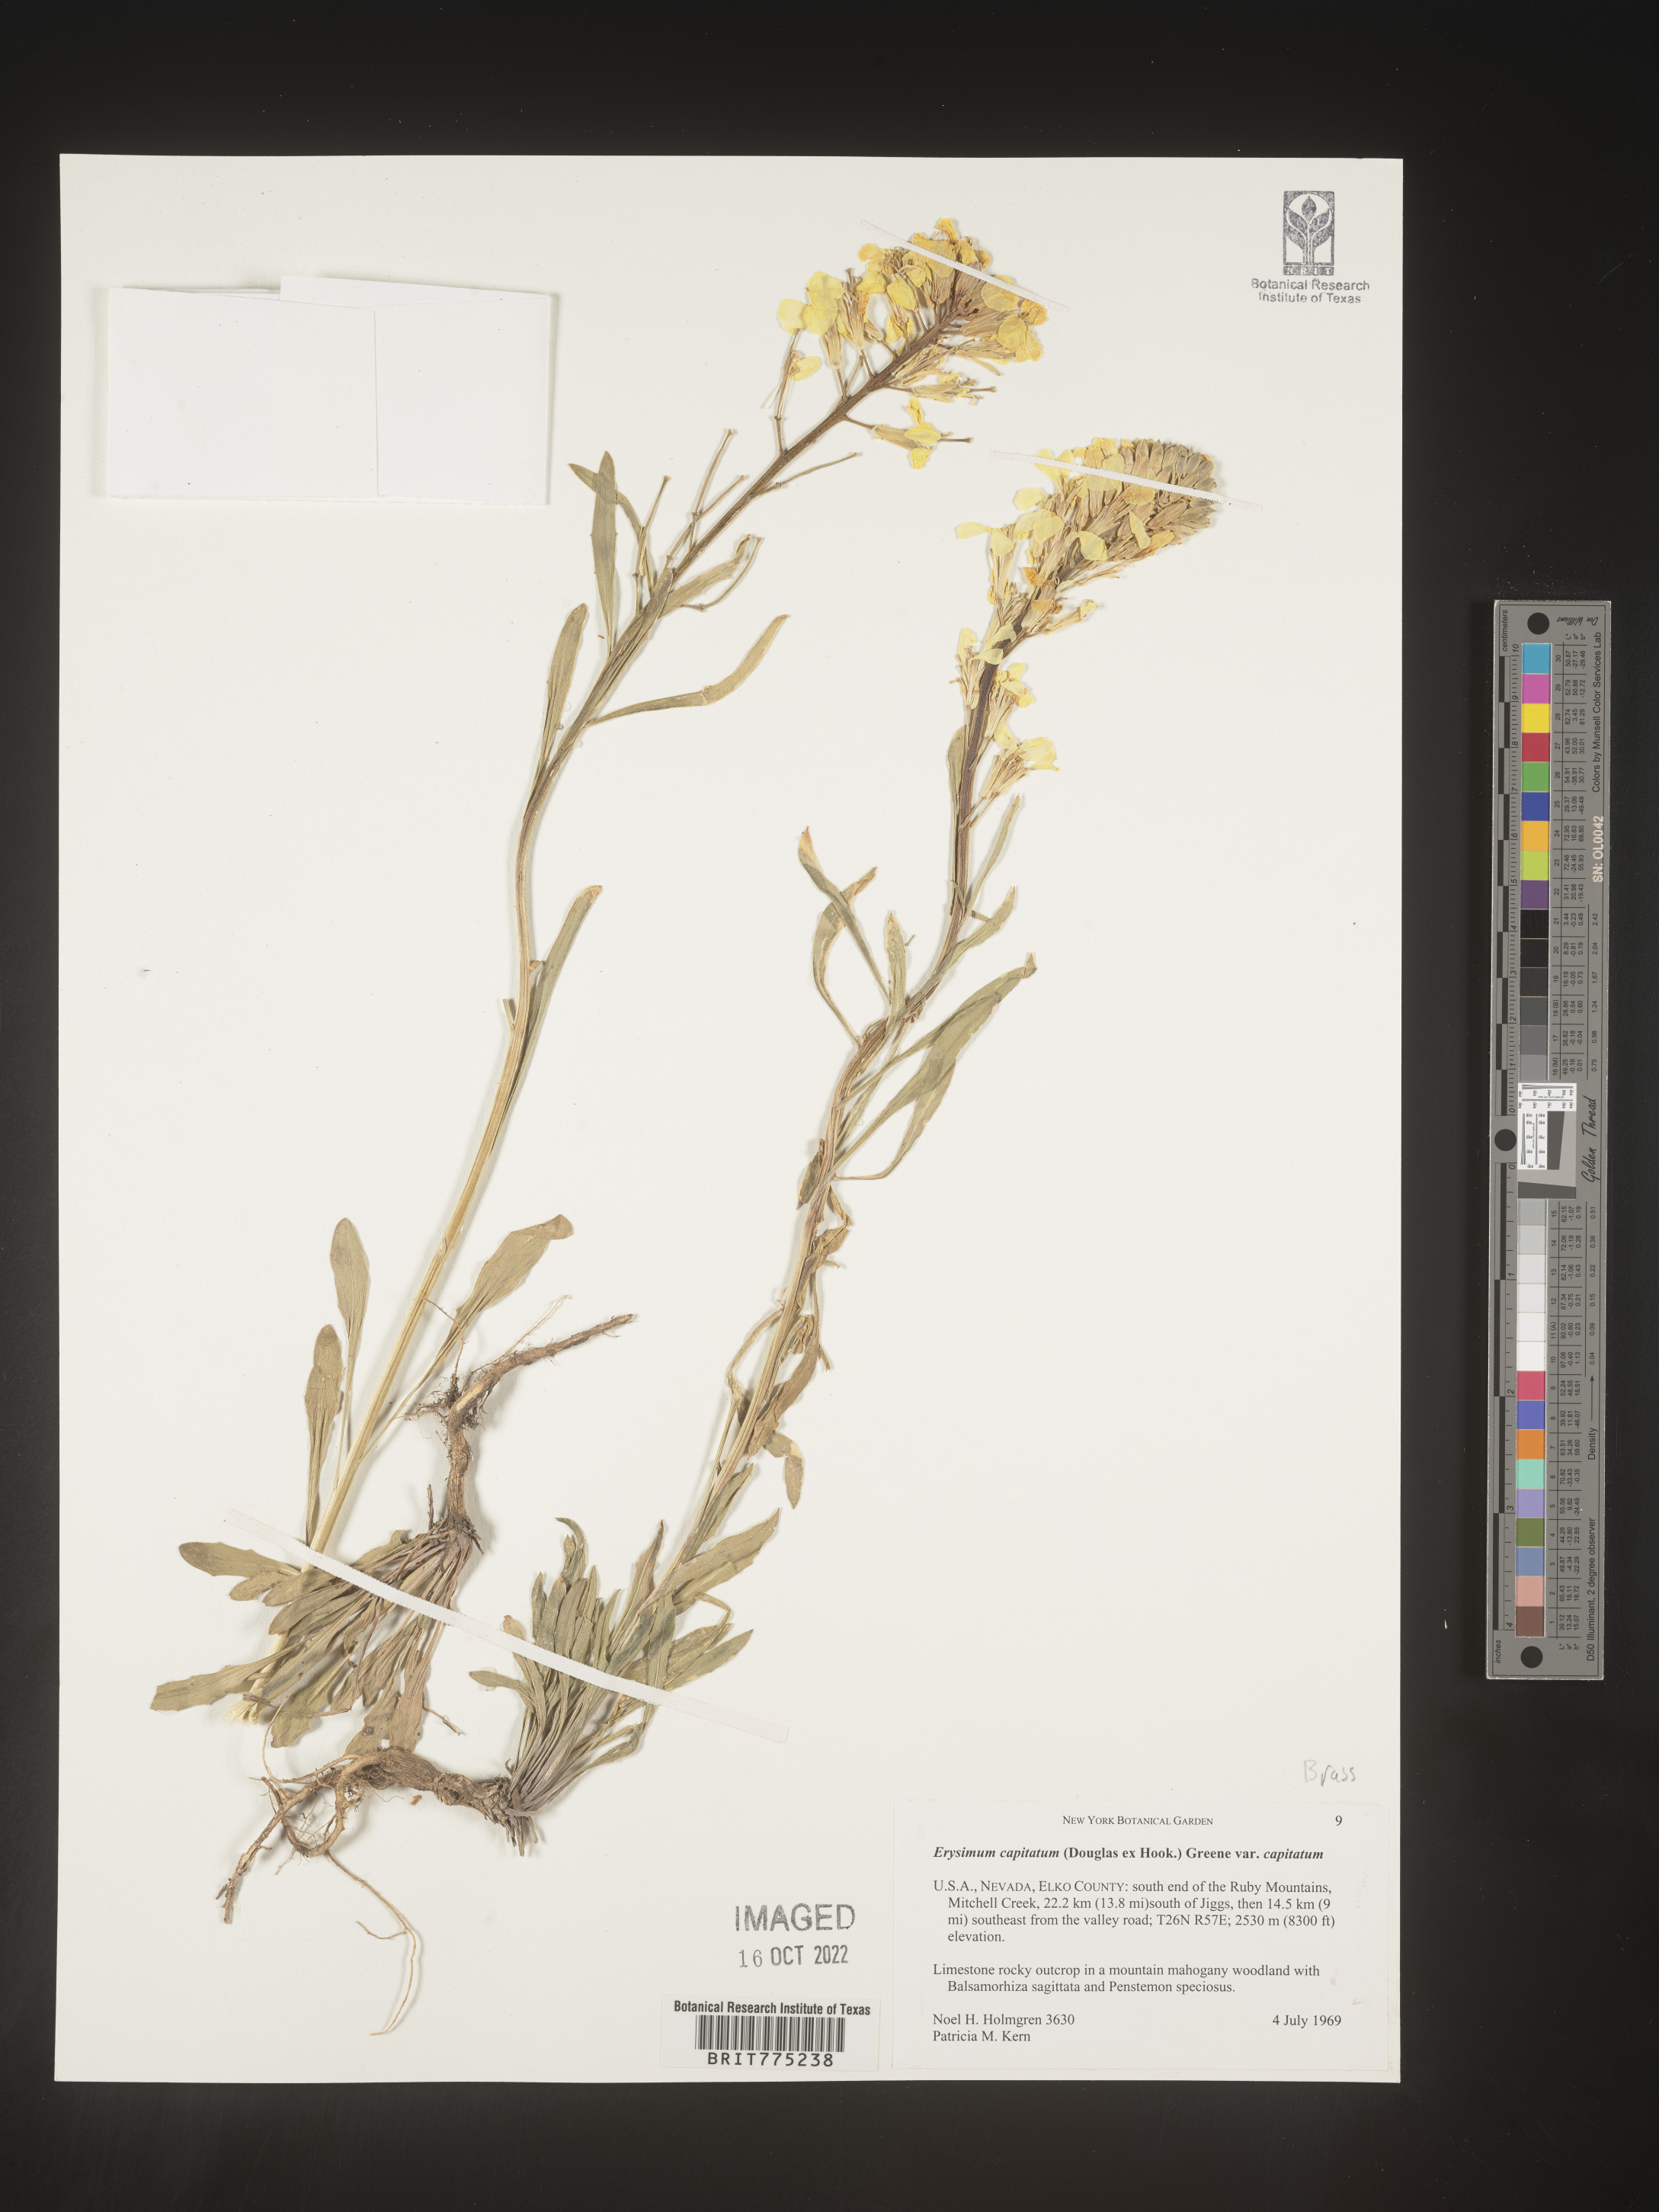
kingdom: Plantae
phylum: Tracheophyta
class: Magnoliopsida
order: Brassicales
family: Brassicaceae
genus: Erysimum
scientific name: Erysimum capitatum
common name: Western wallflower
